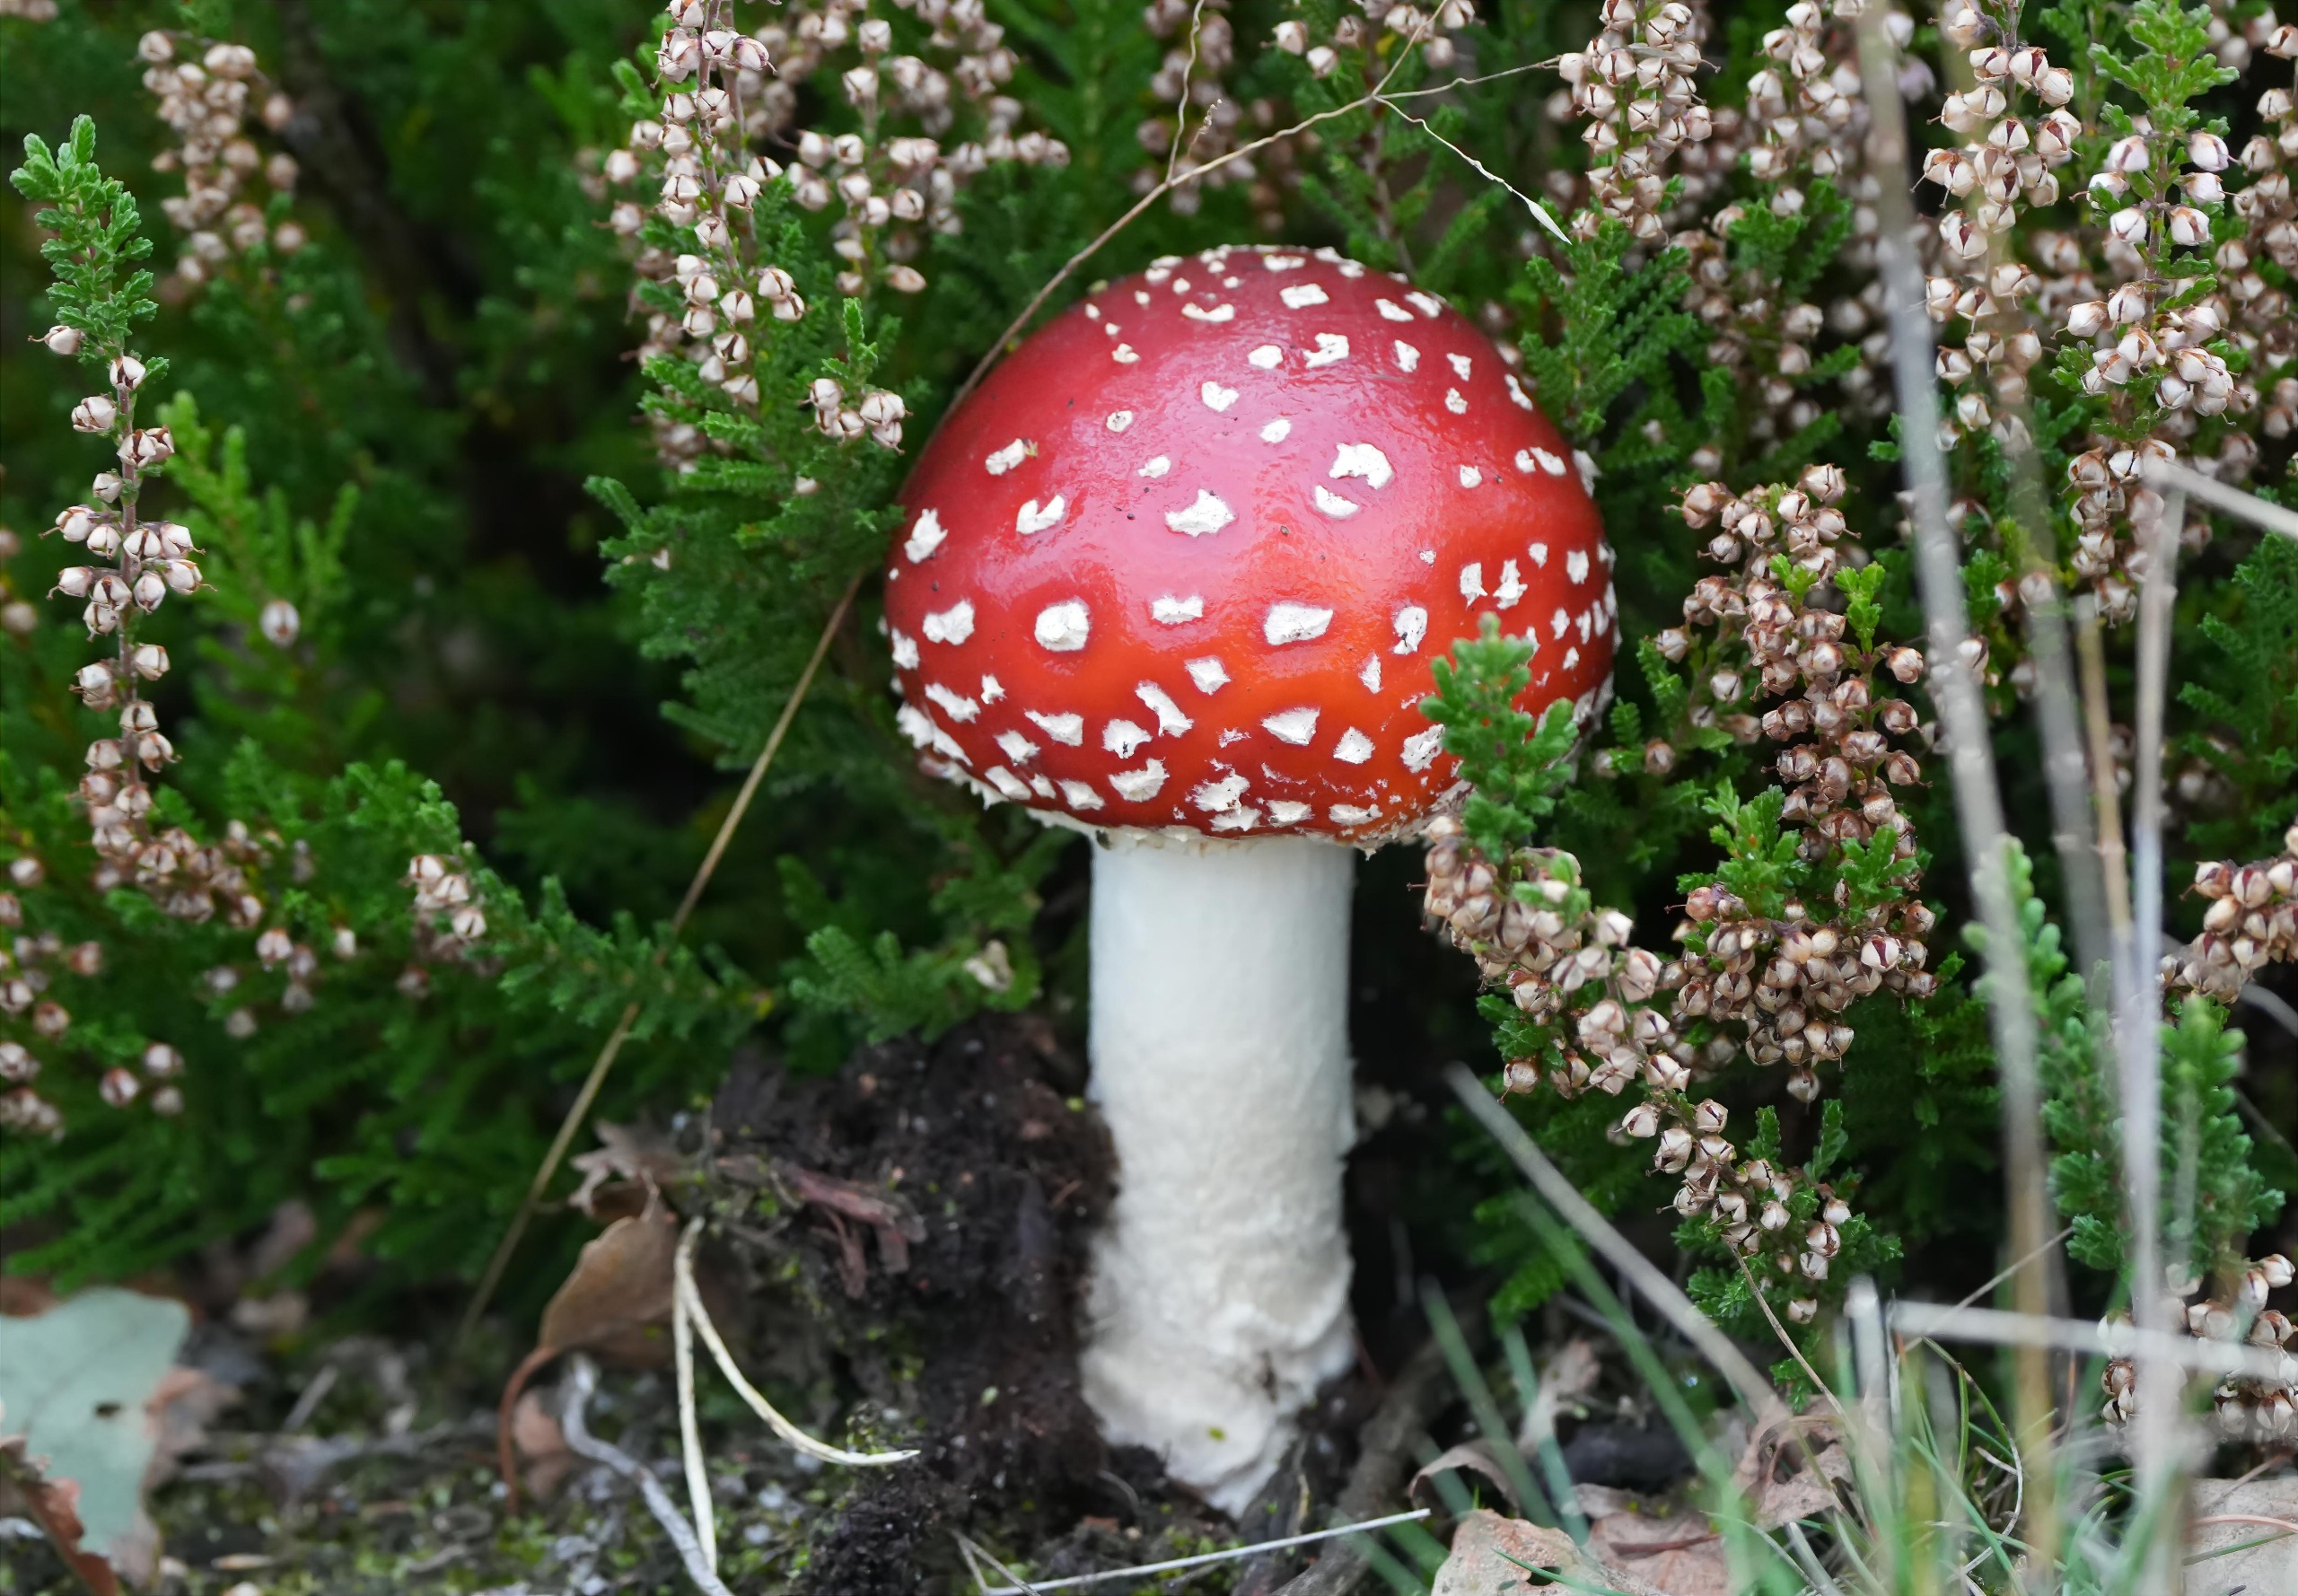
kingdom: Fungi
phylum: Basidiomycota
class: Agaricomycetes
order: Agaricales
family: Amanitaceae
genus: Amanita
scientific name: Amanita muscaria
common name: Rød fluesvamp
